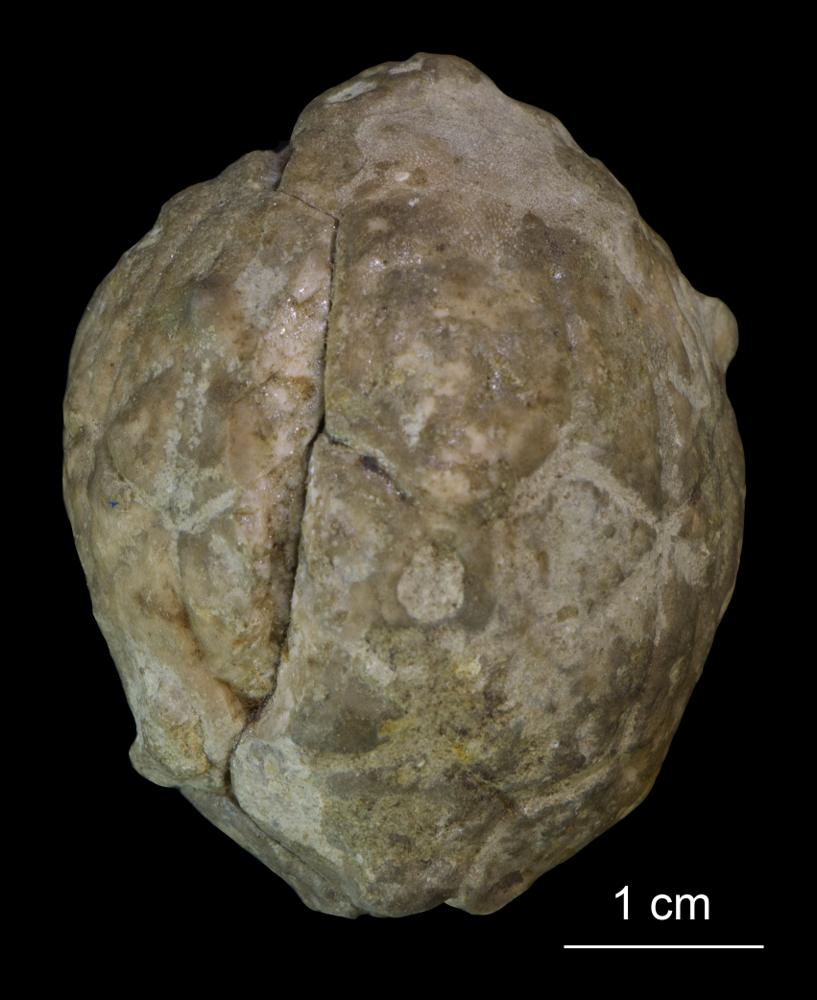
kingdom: Animalia
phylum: Echinodermata
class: Crinoidea
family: Hemicosmitidae
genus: Hemicosmites
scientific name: Hemicosmites
